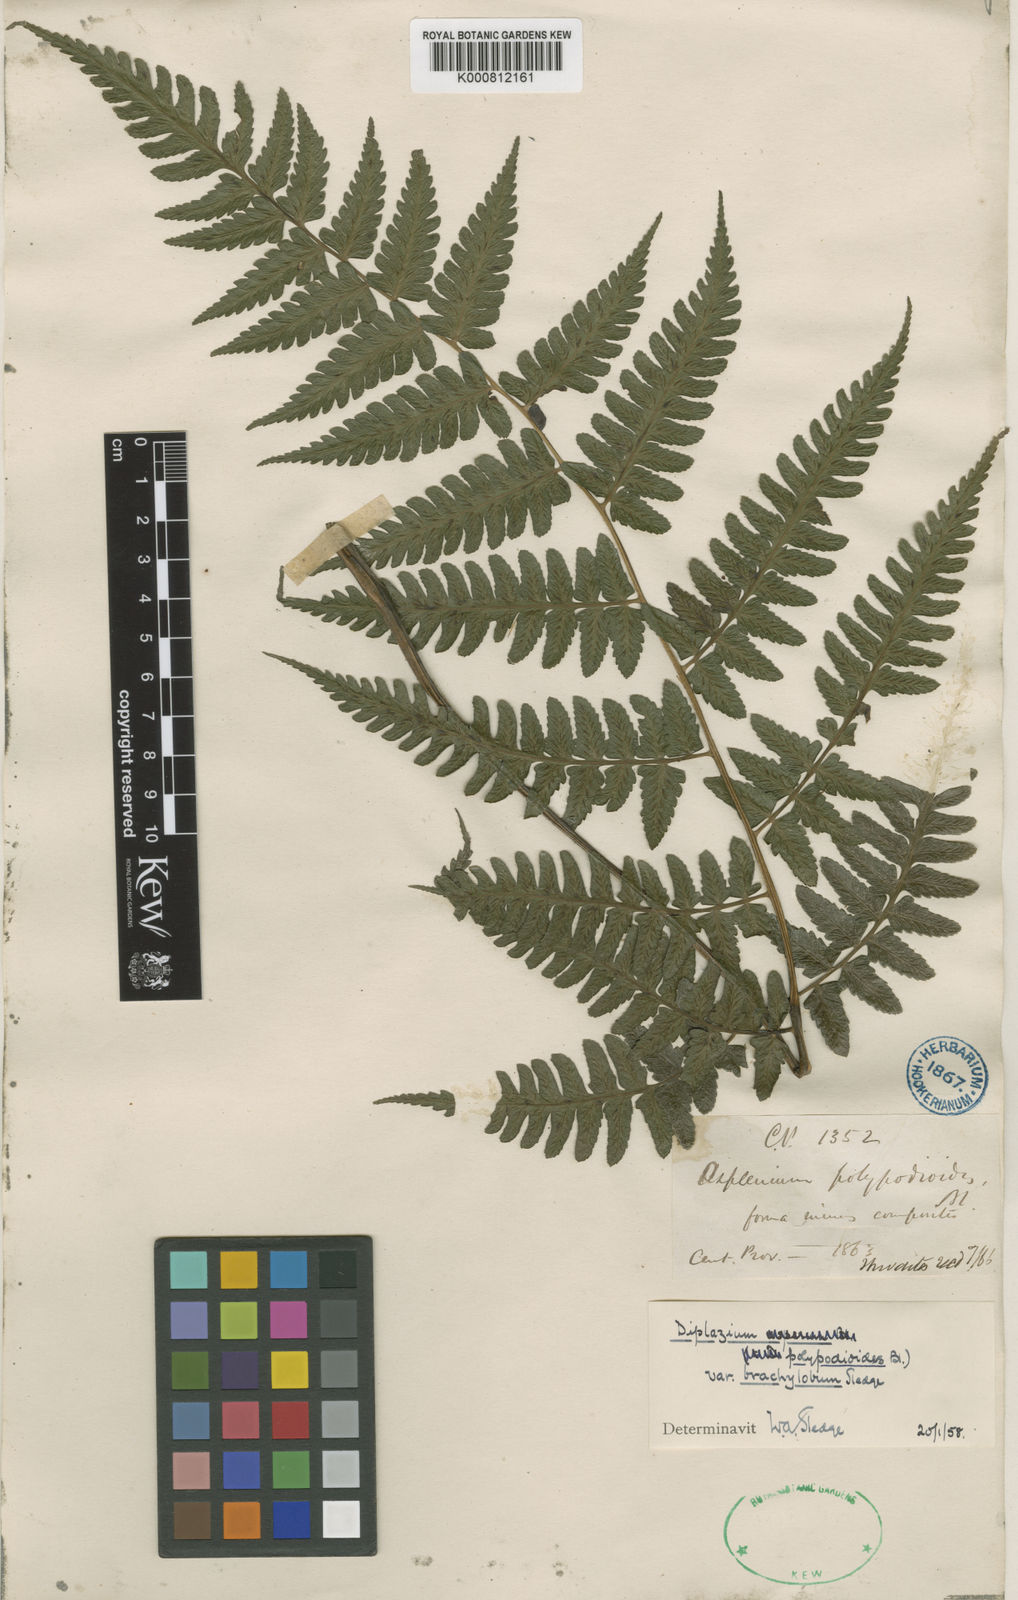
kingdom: Plantae
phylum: Tracheophyta
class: Polypodiopsida
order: Polypodiales
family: Athyriaceae
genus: Diplazium
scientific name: Diplazium polypodioides
